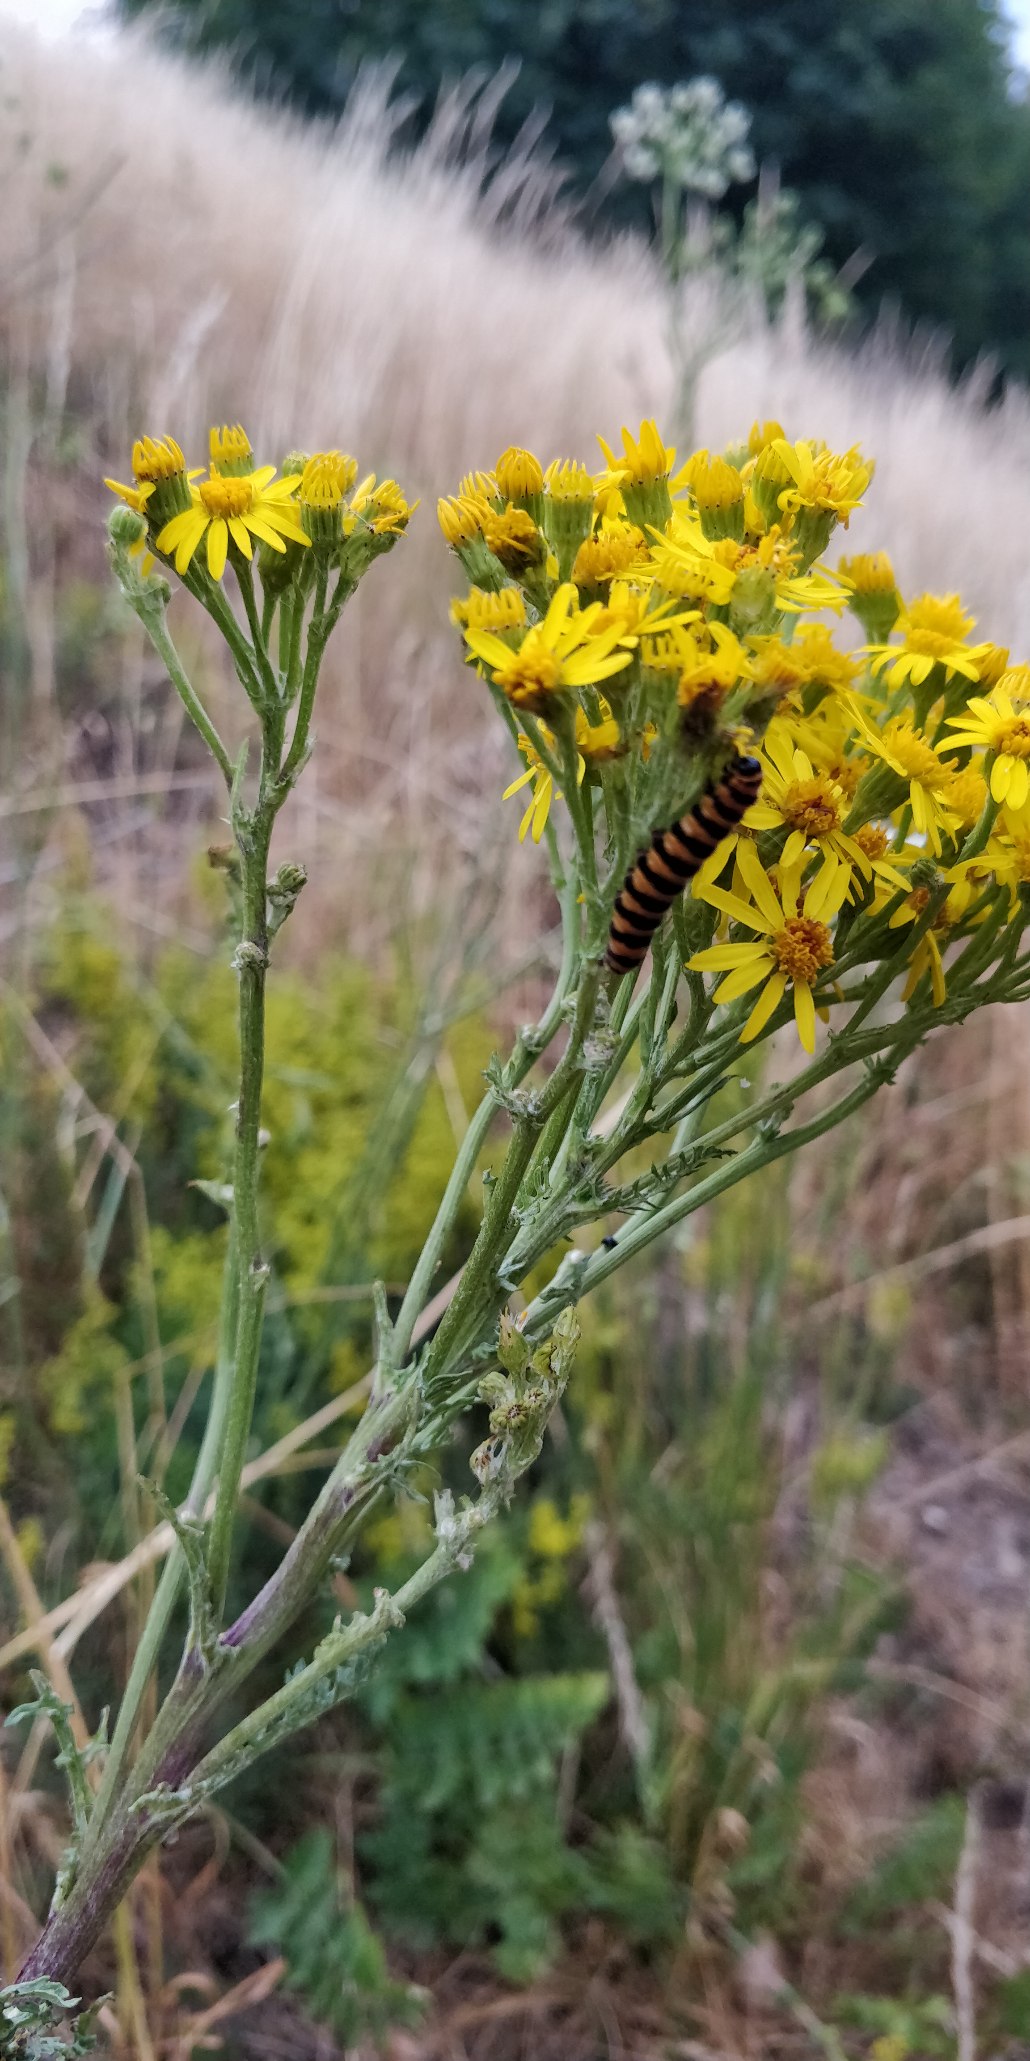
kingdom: Plantae
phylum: Tracheophyta
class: Magnoliopsida
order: Asterales
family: Asteraceae
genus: Jacobaea
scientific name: Jacobaea vulgaris
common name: Eng-brandbæger
